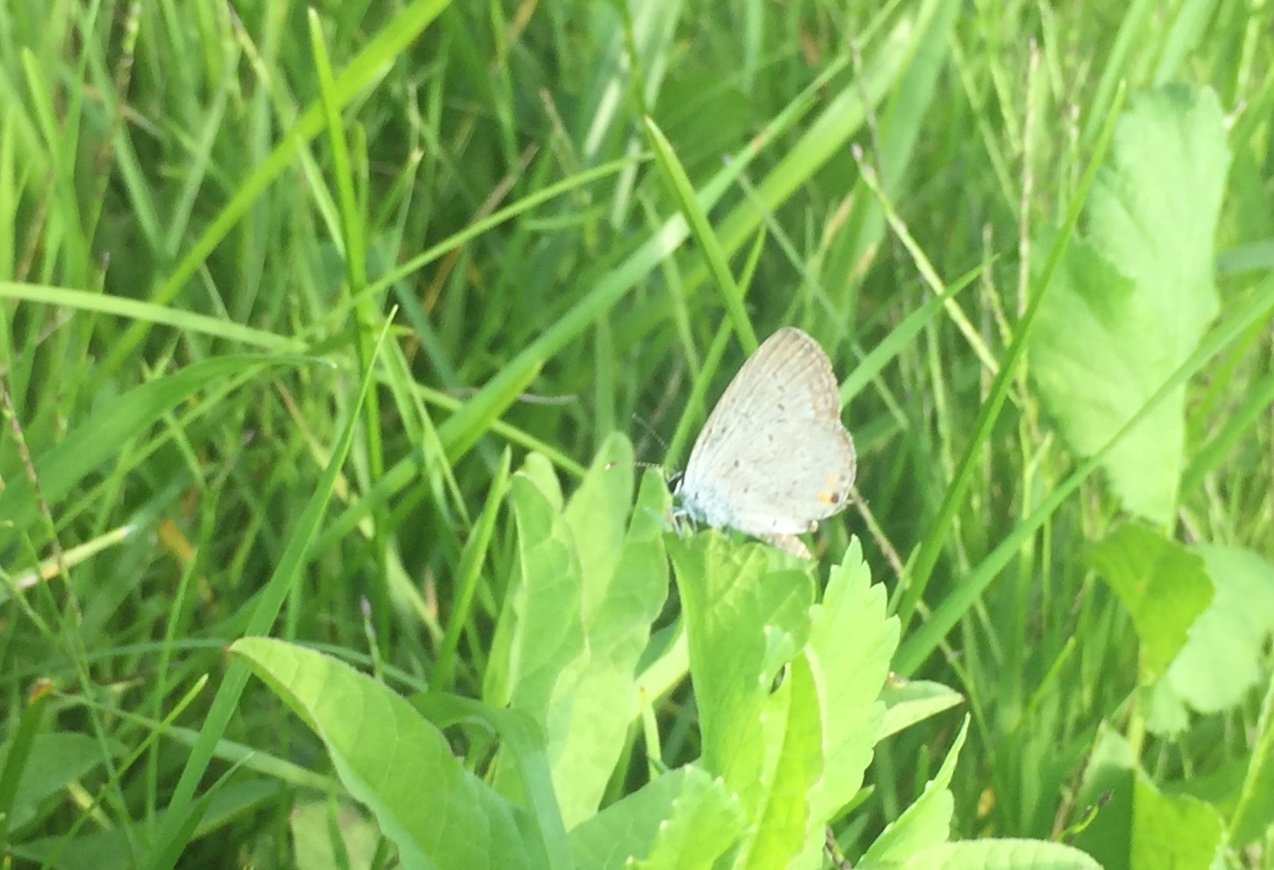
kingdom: Animalia
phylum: Arthropoda
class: Insecta
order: Lepidoptera
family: Lycaenidae
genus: Elkalyce
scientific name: Elkalyce comyntas
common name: Eastern Tailed-Blue
